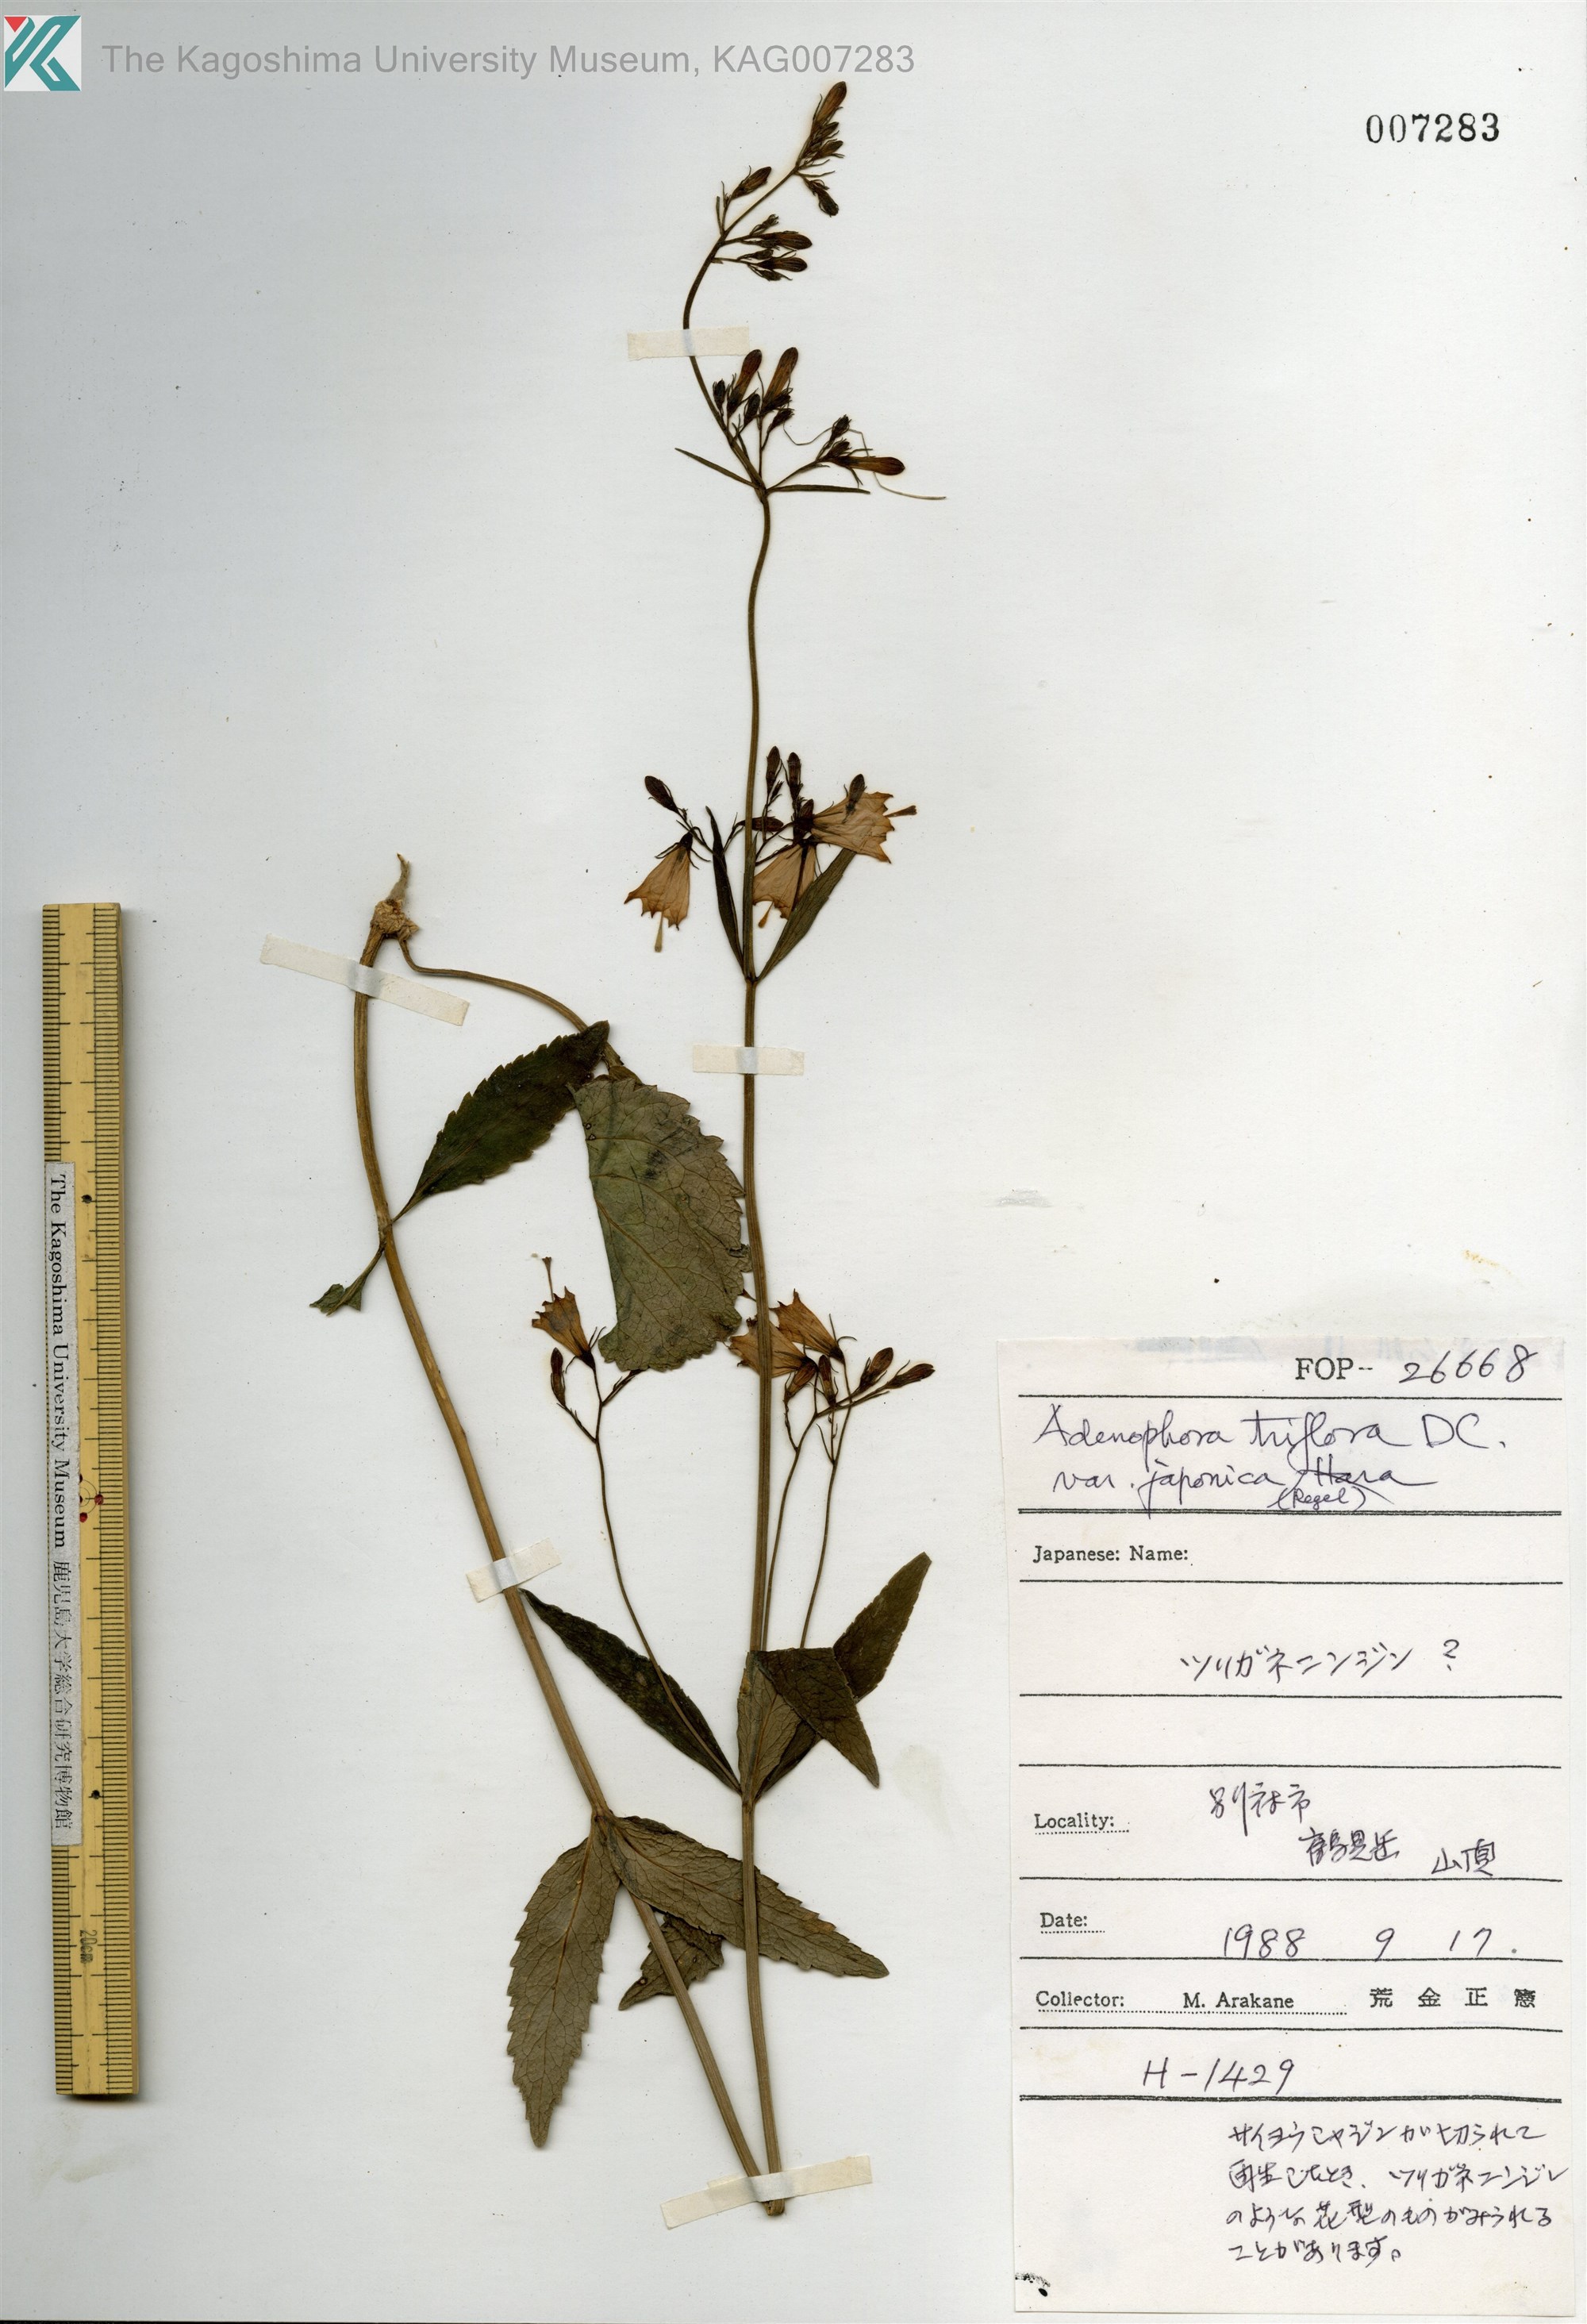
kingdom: Plantae
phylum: Tracheophyta
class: Magnoliopsida
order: Asterales
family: Campanulaceae
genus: Adenophora
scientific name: Adenophora triphylla
